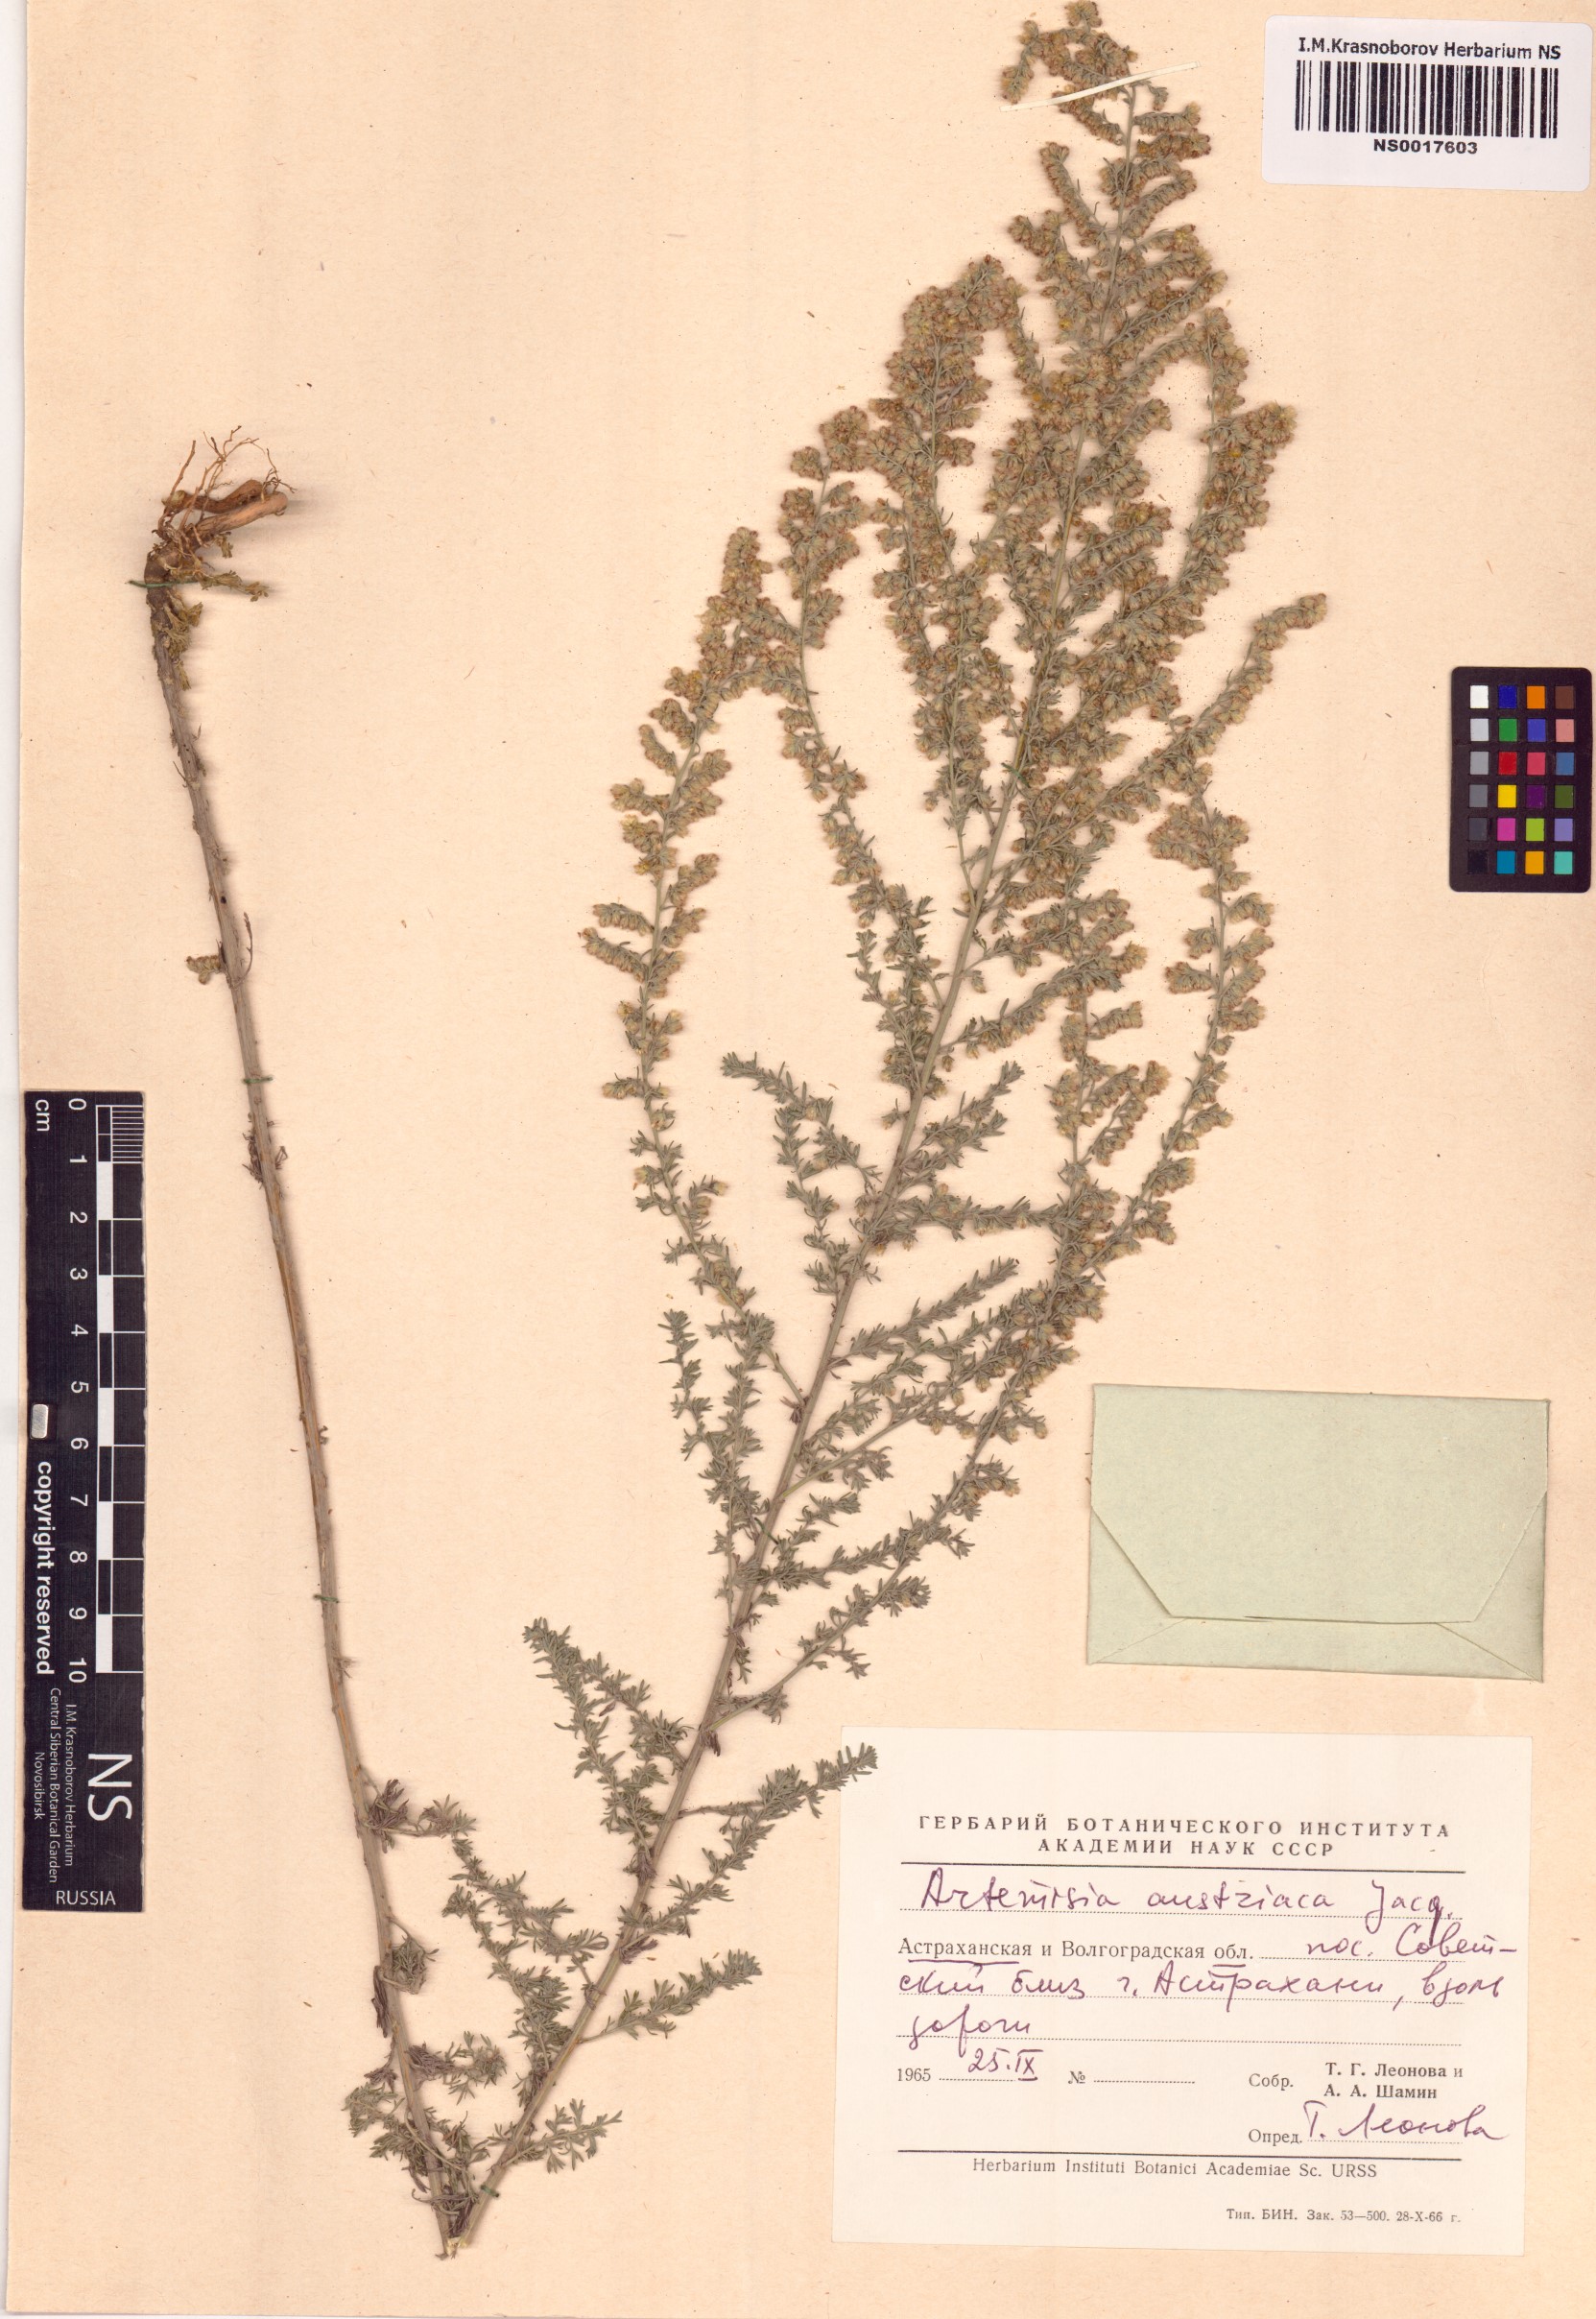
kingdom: Plantae
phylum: Tracheophyta
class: Magnoliopsida
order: Asterales
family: Asteraceae
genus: Artemisia
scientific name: Artemisia austriaca
